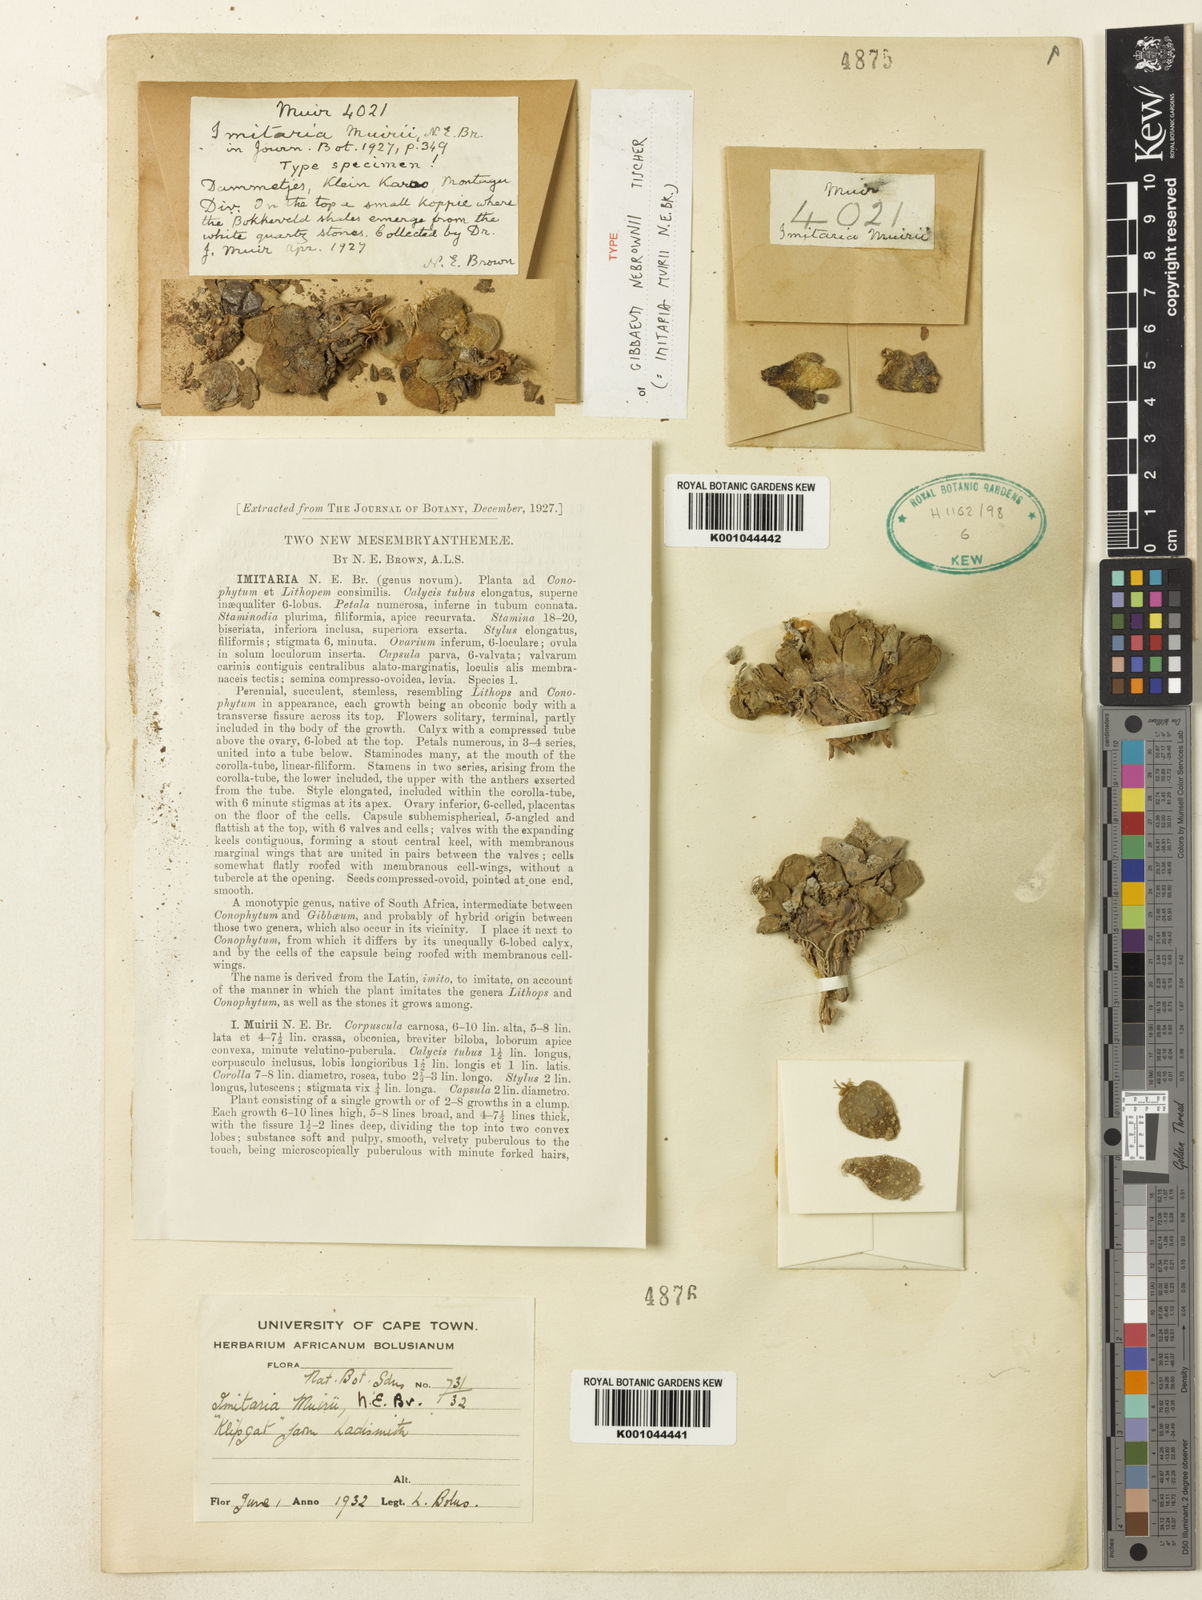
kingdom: Plantae
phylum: Tracheophyta
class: Magnoliopsida
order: Caryophyllales
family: Aizoaceae
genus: Gibbaeum
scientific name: Gibbaeum nebrownii
